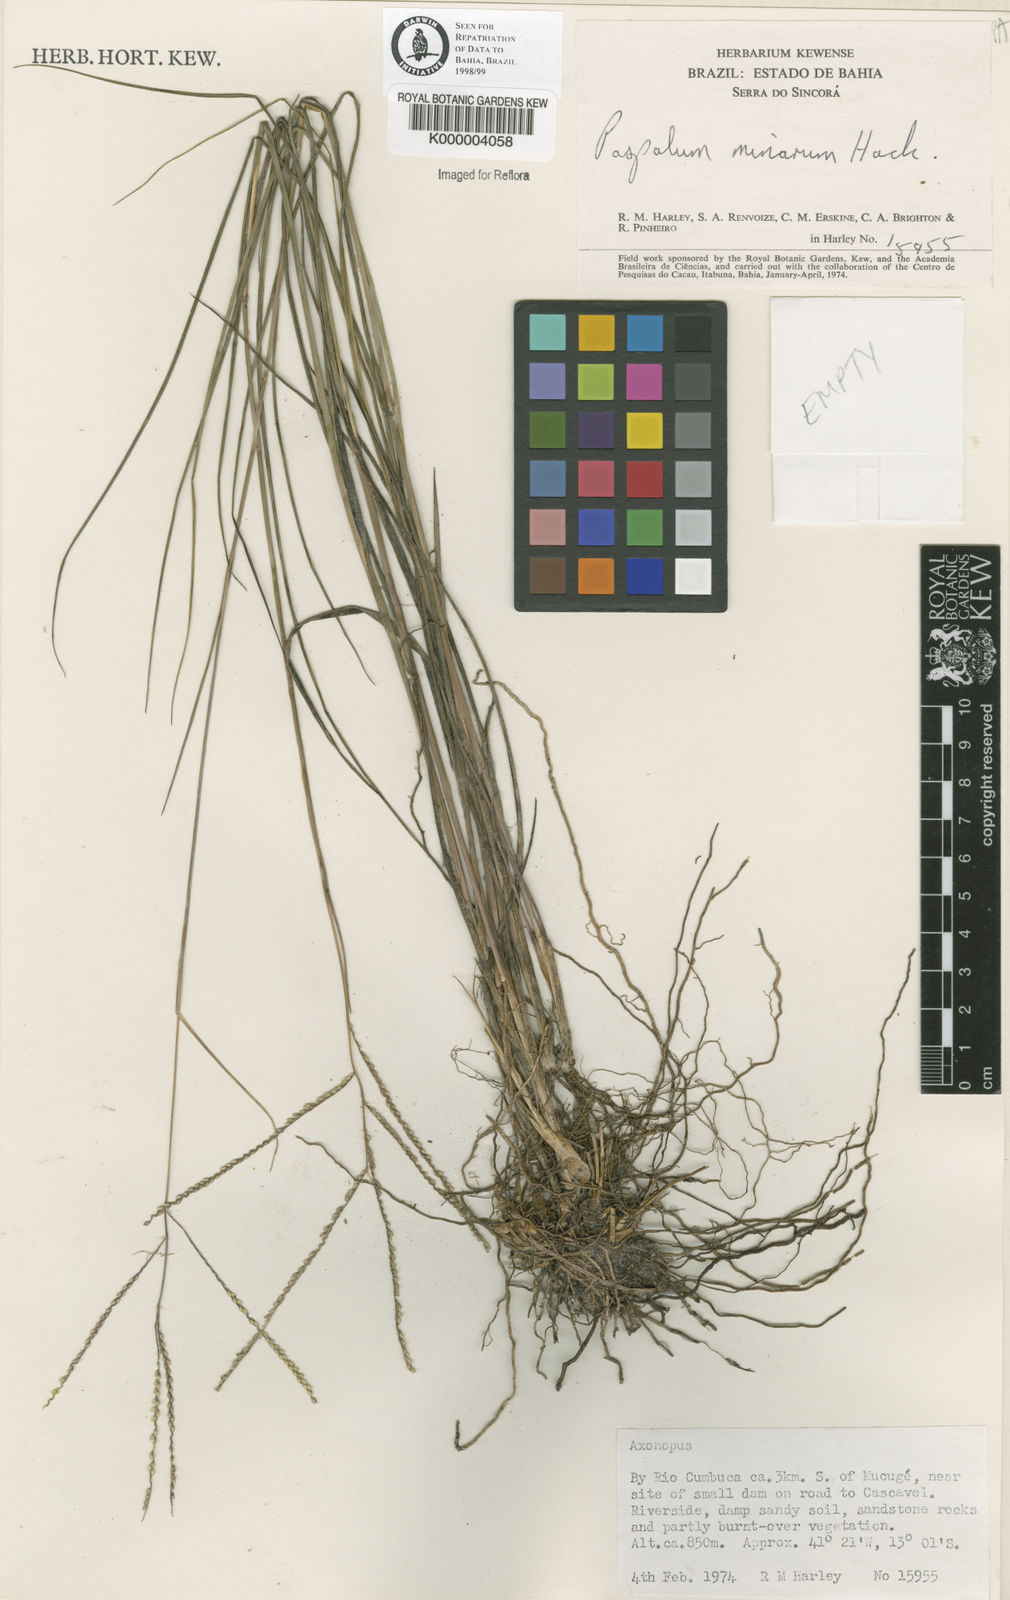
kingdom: Plantae
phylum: Tracheophyta
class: Liliopsida
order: Poales
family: Poaceae
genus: Paspalum
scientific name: Paspalum minarum
